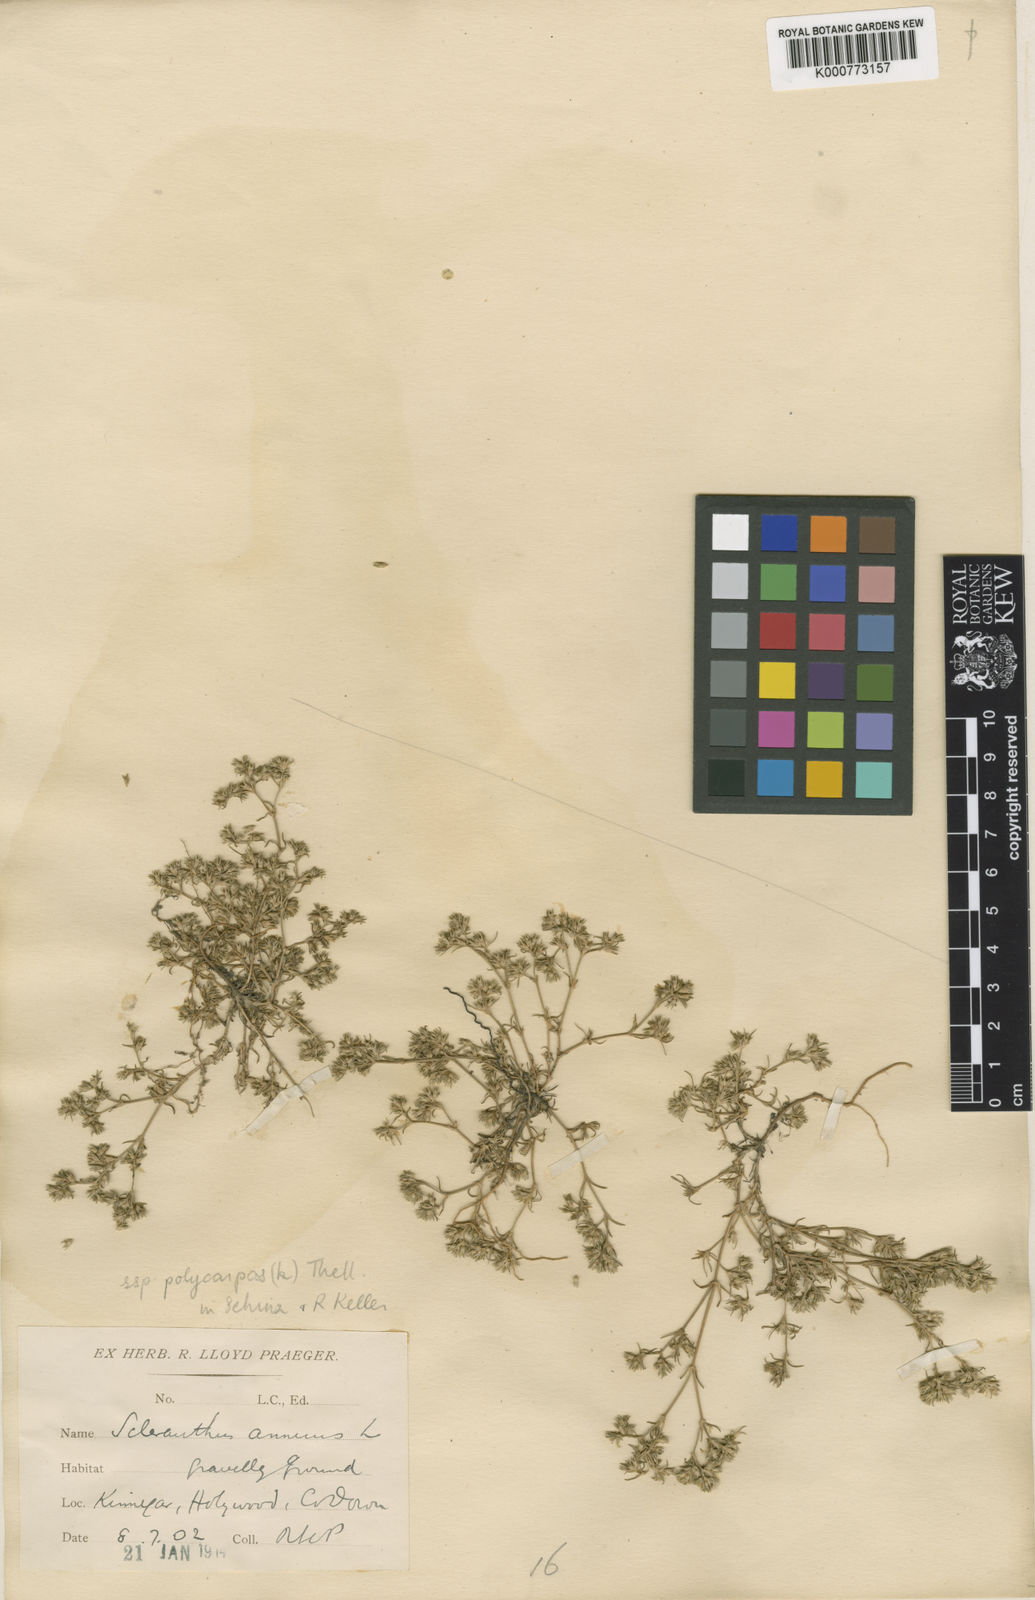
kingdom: Plantae
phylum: Tracheophyta
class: Magnoliopsida
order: Caryophyllales
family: Caryophyllaceae
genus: Scleranthus
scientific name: Scleranthus annuus
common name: Annual knawel
